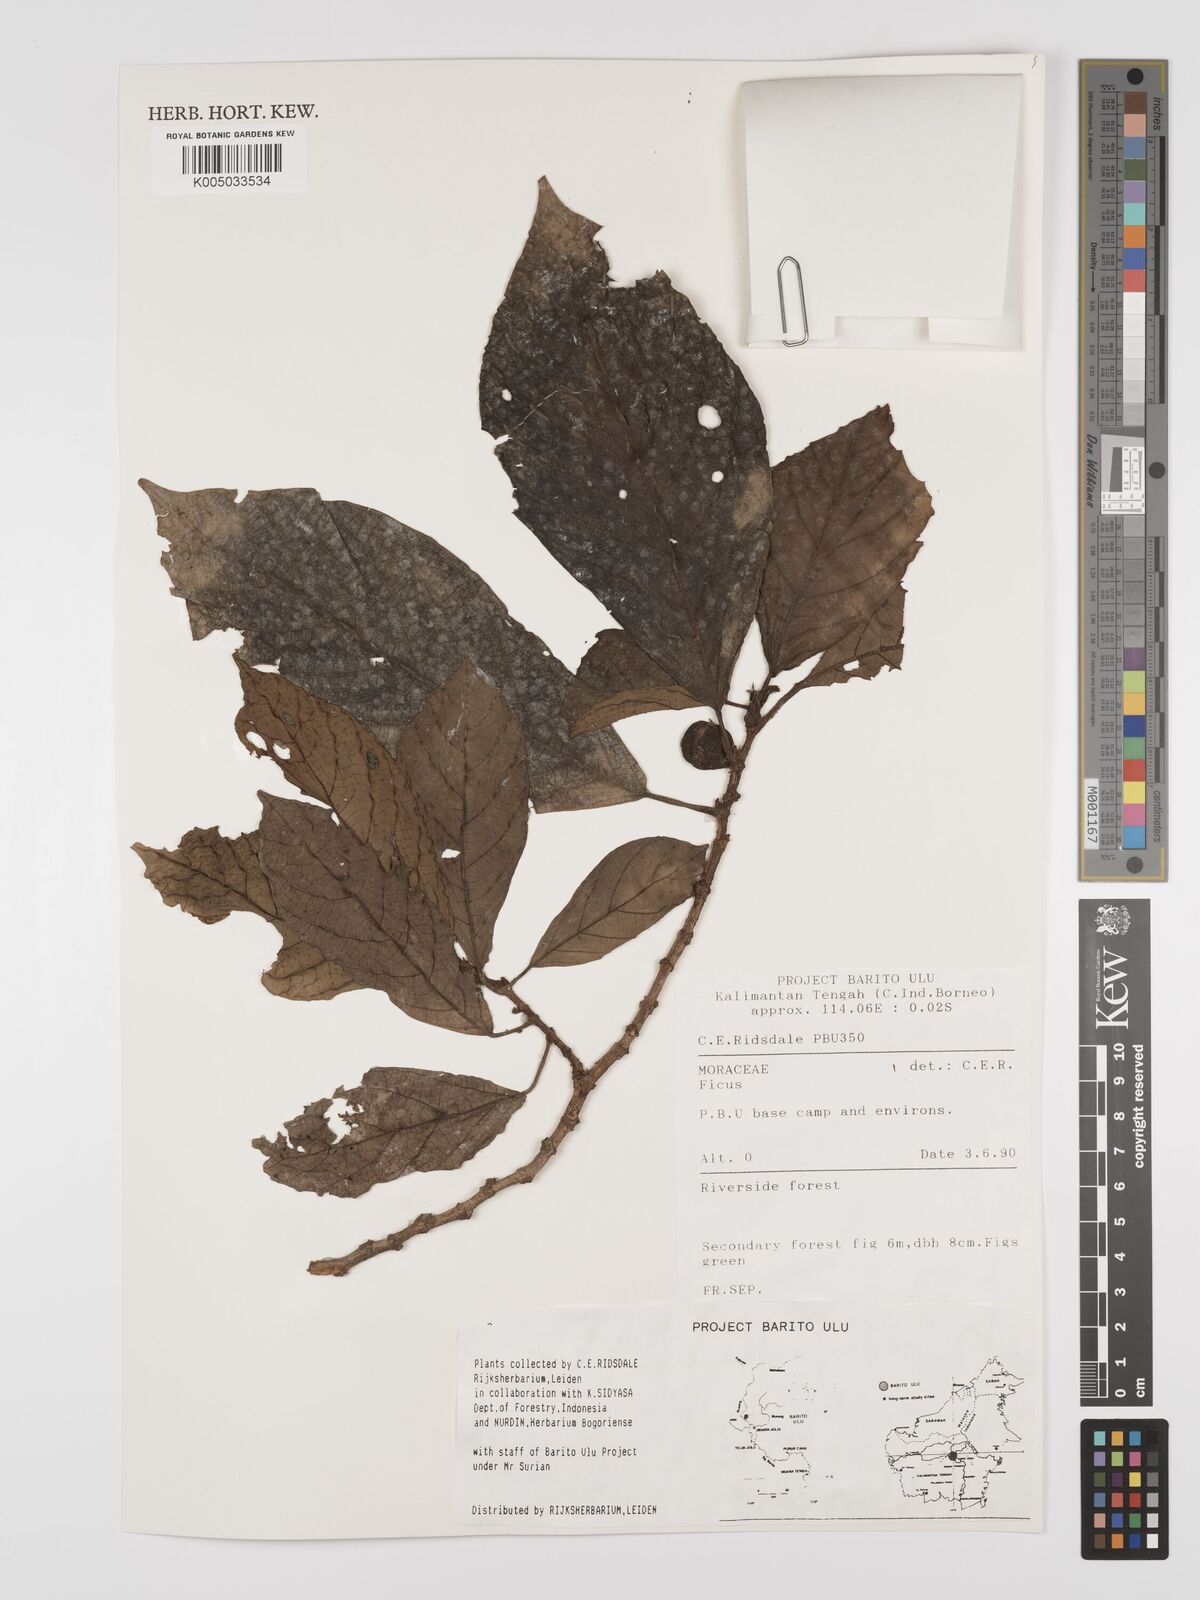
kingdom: Plantae
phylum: Tracheophyta
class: Magnoliopsida
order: Rosales
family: Moraceae
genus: Ficus
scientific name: Ficus
